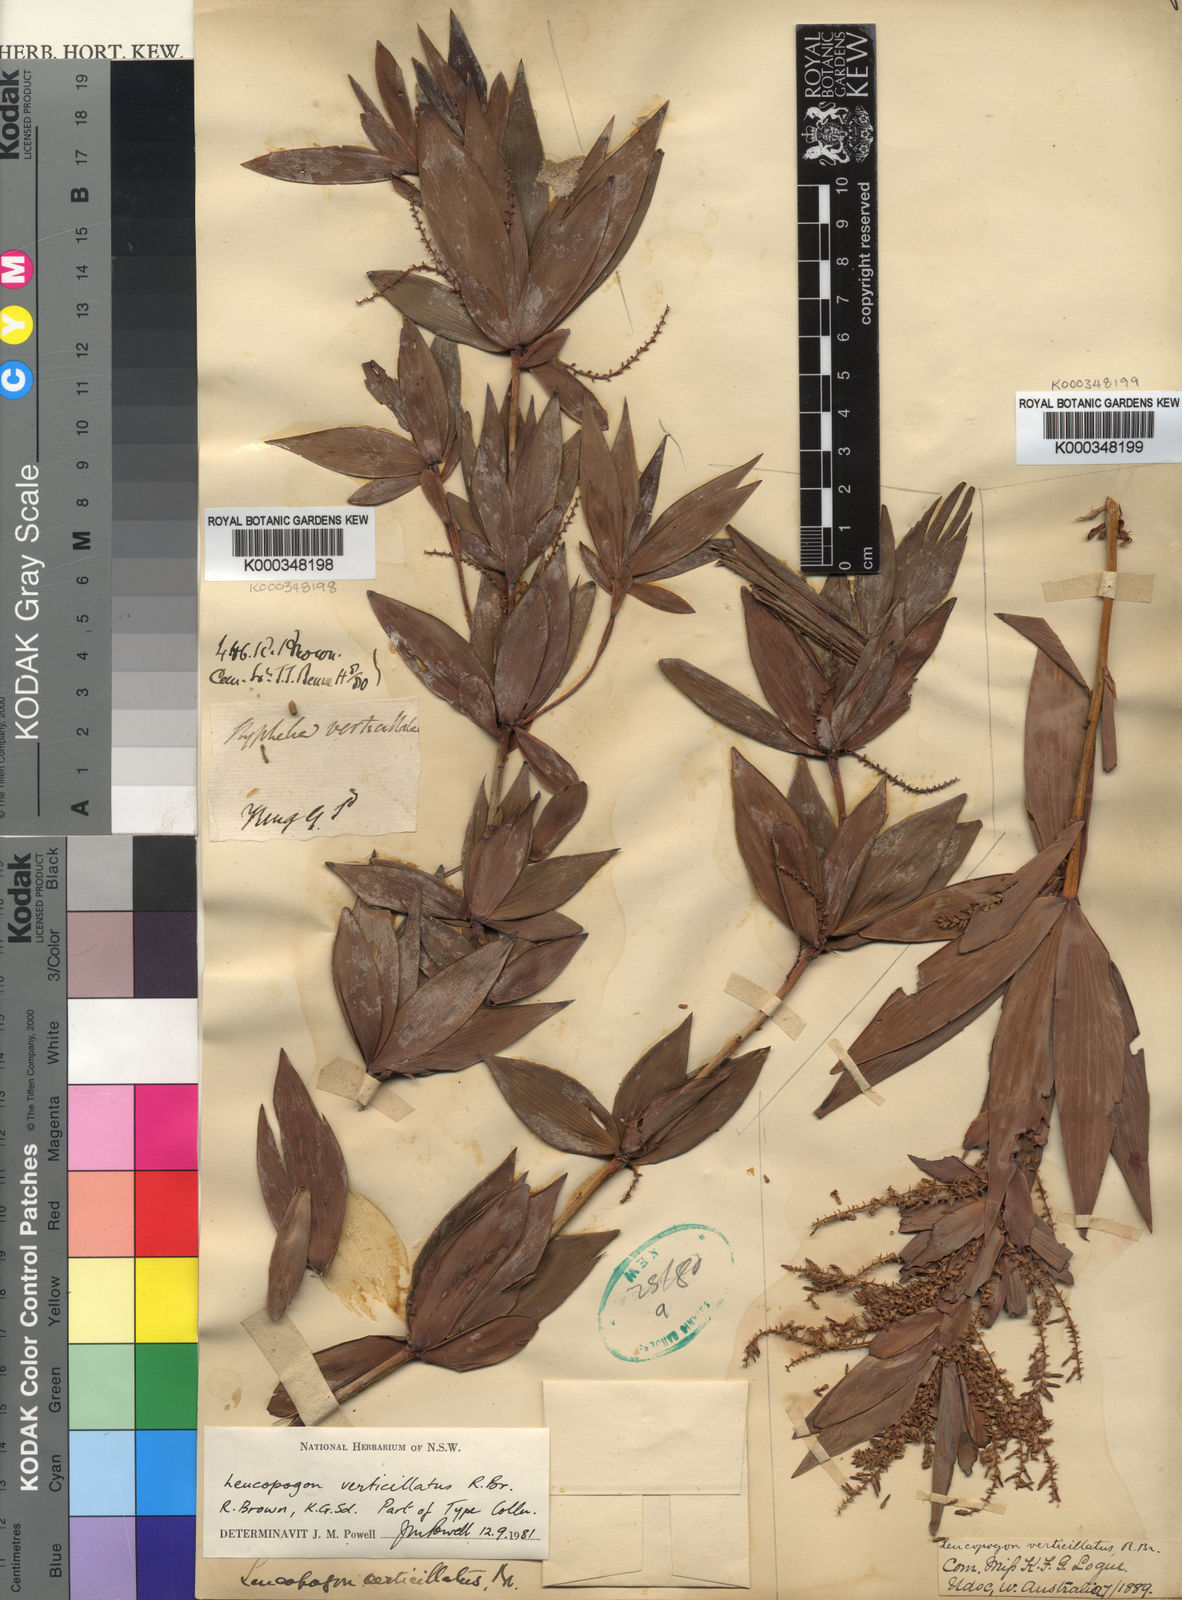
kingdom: Plantae
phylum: Tracheophyta
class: Magnoliopsida
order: Ericales
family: Ericaceae
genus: Leucopogon
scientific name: Leucopogon verticillatus
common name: Tasselshrub
